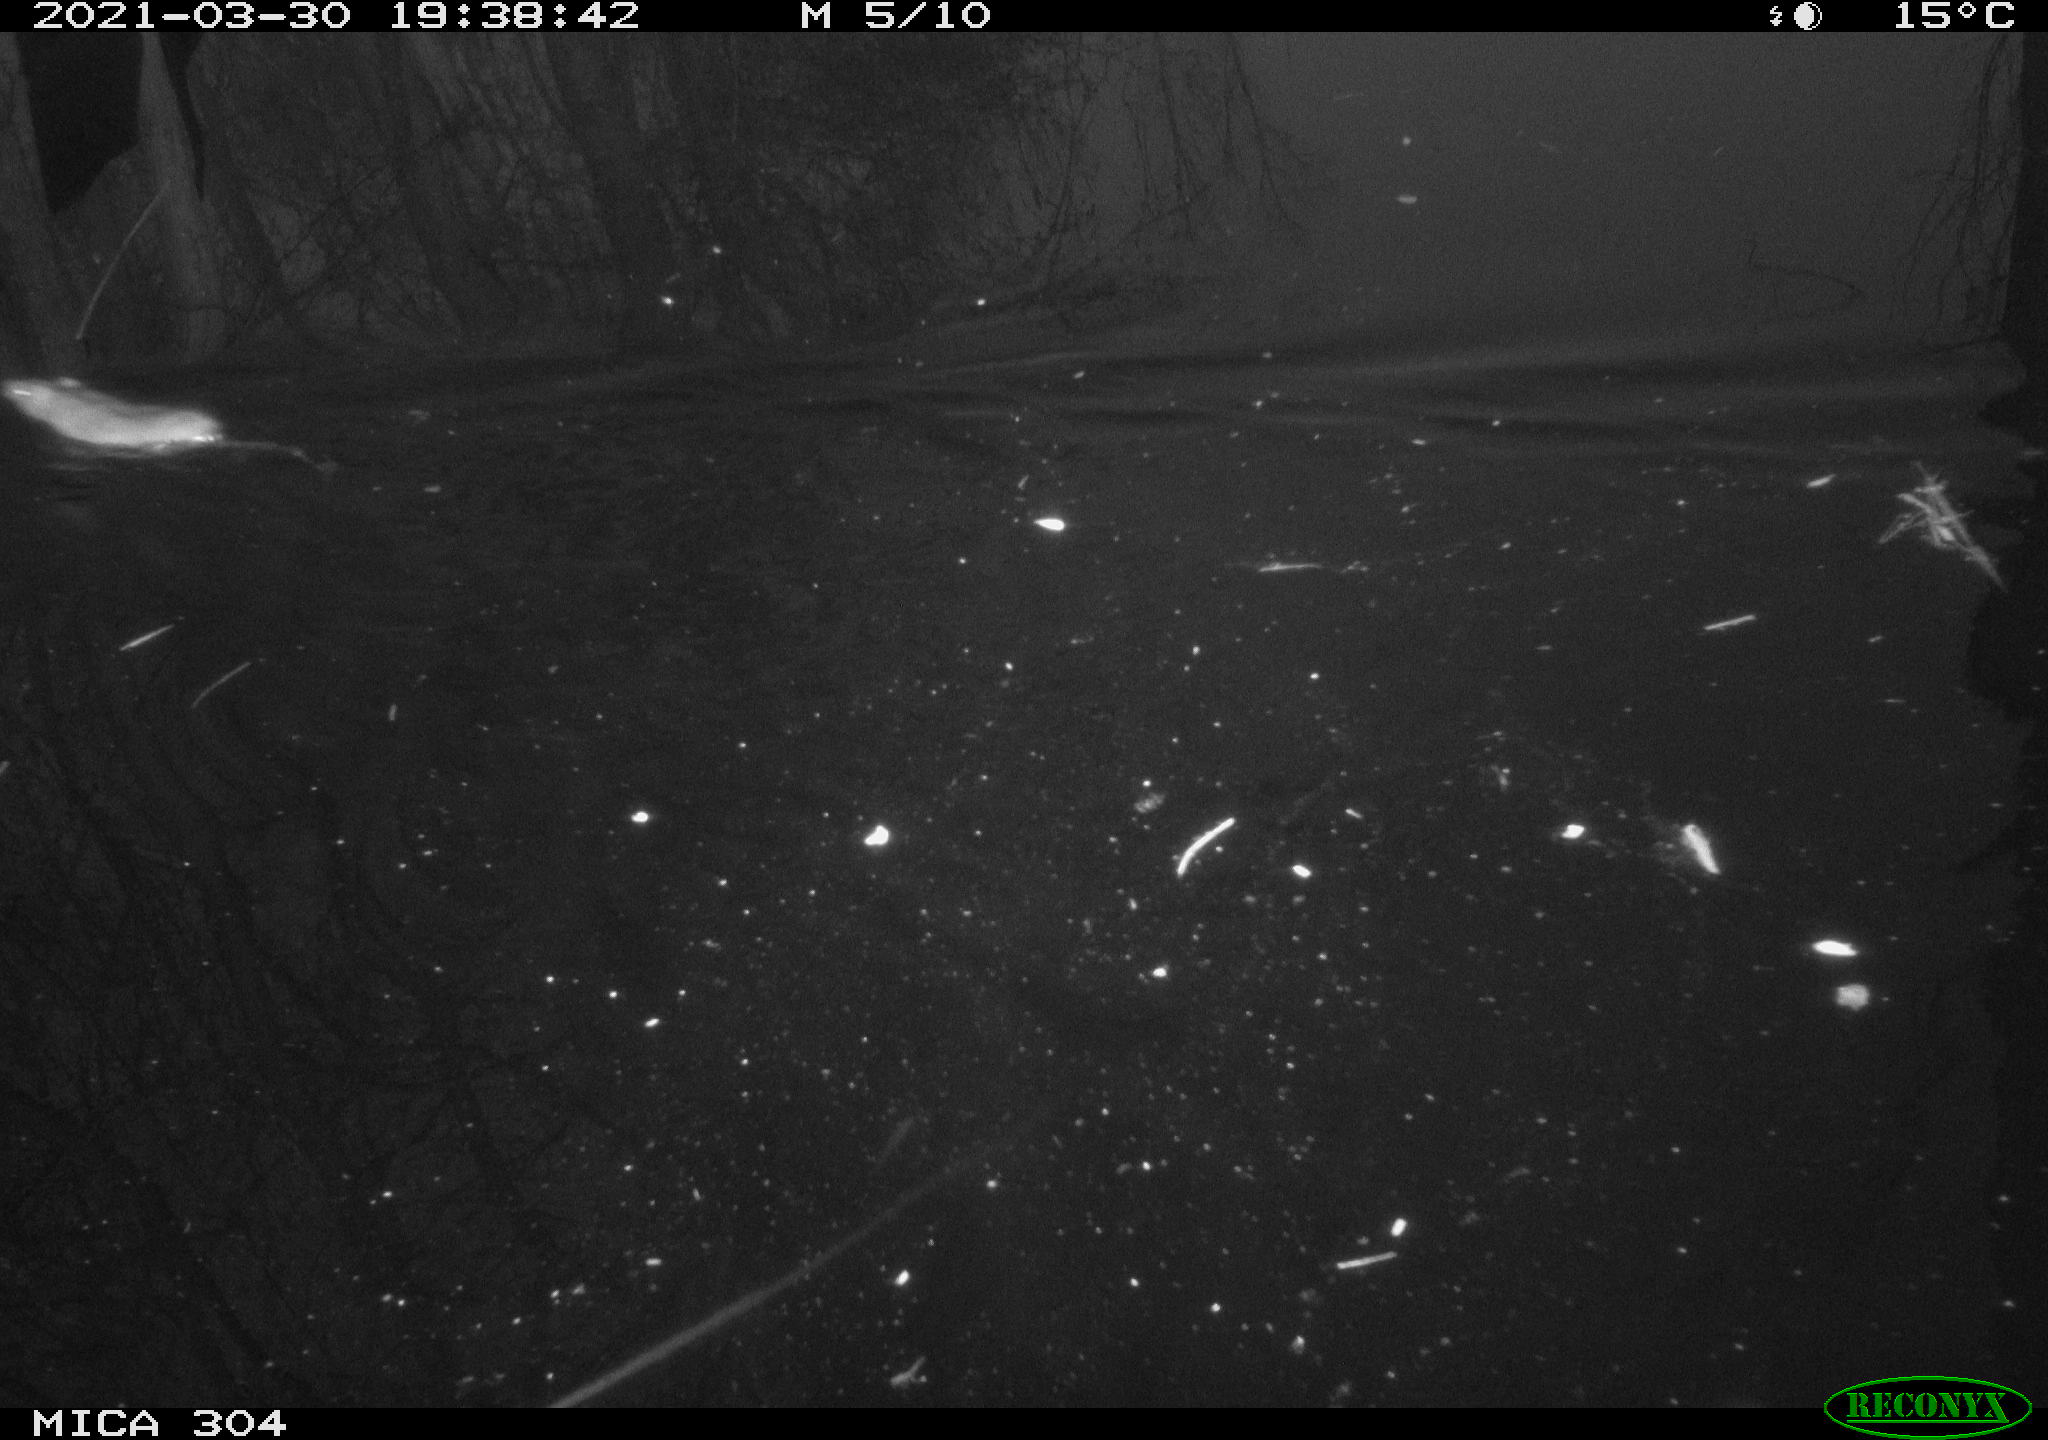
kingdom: Animalia
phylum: Chordata
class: Mammalia
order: Rodentia
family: Muridae
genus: Rattus
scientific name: Rattus norvegicus
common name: Brown rat
